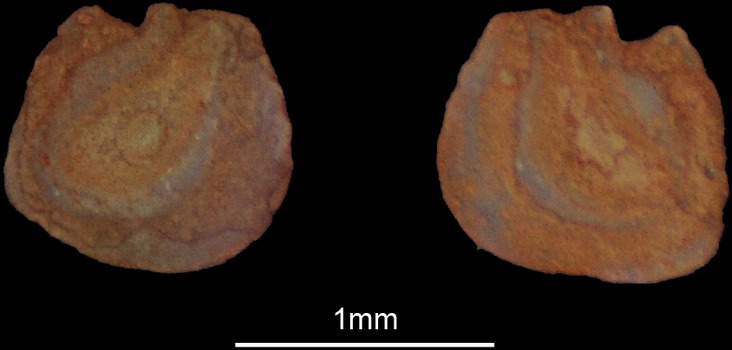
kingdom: Animalia
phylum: Chordata
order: Cypriniformes
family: Cyprinidae
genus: Engraulicypris
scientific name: Engraulicypris sardella
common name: Lake malawi sardine
